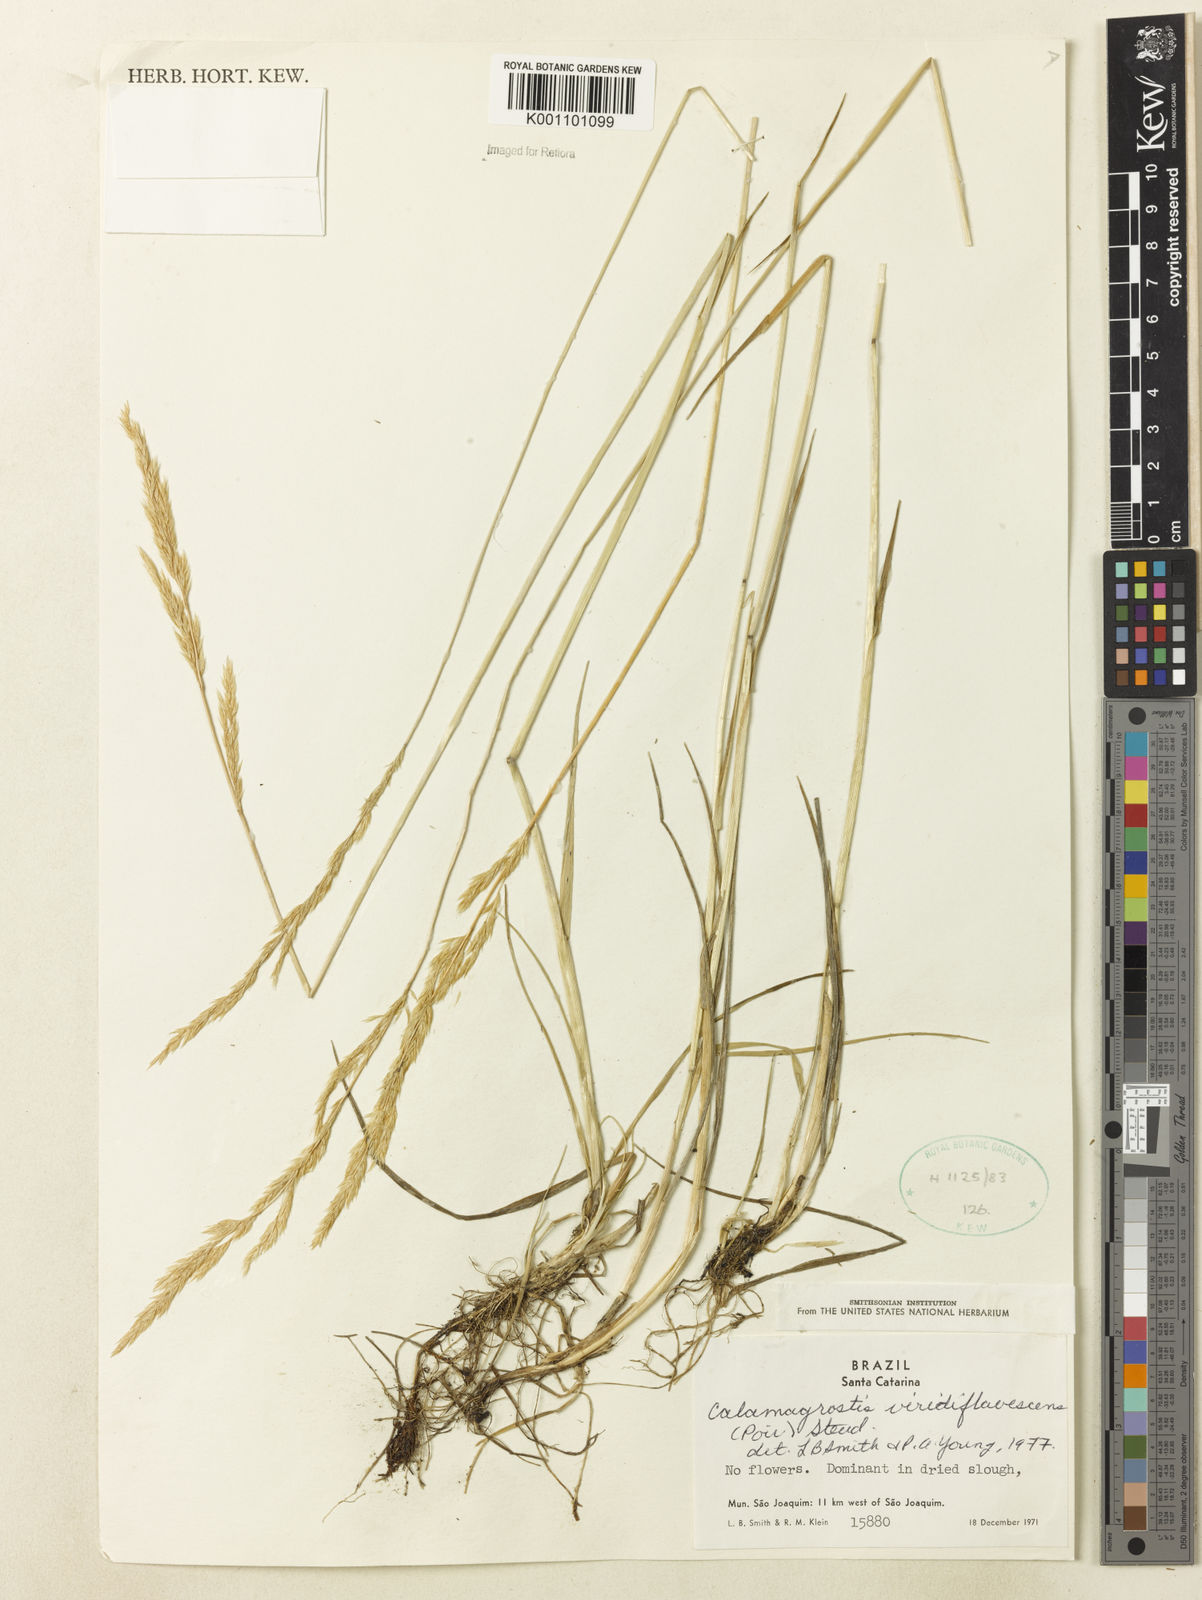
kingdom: Plantae
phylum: Tracheophyta
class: Liliopsida
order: Poales
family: Poaceae
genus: Cinnagrostis
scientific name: Cinnagrostis viridiflavescens
